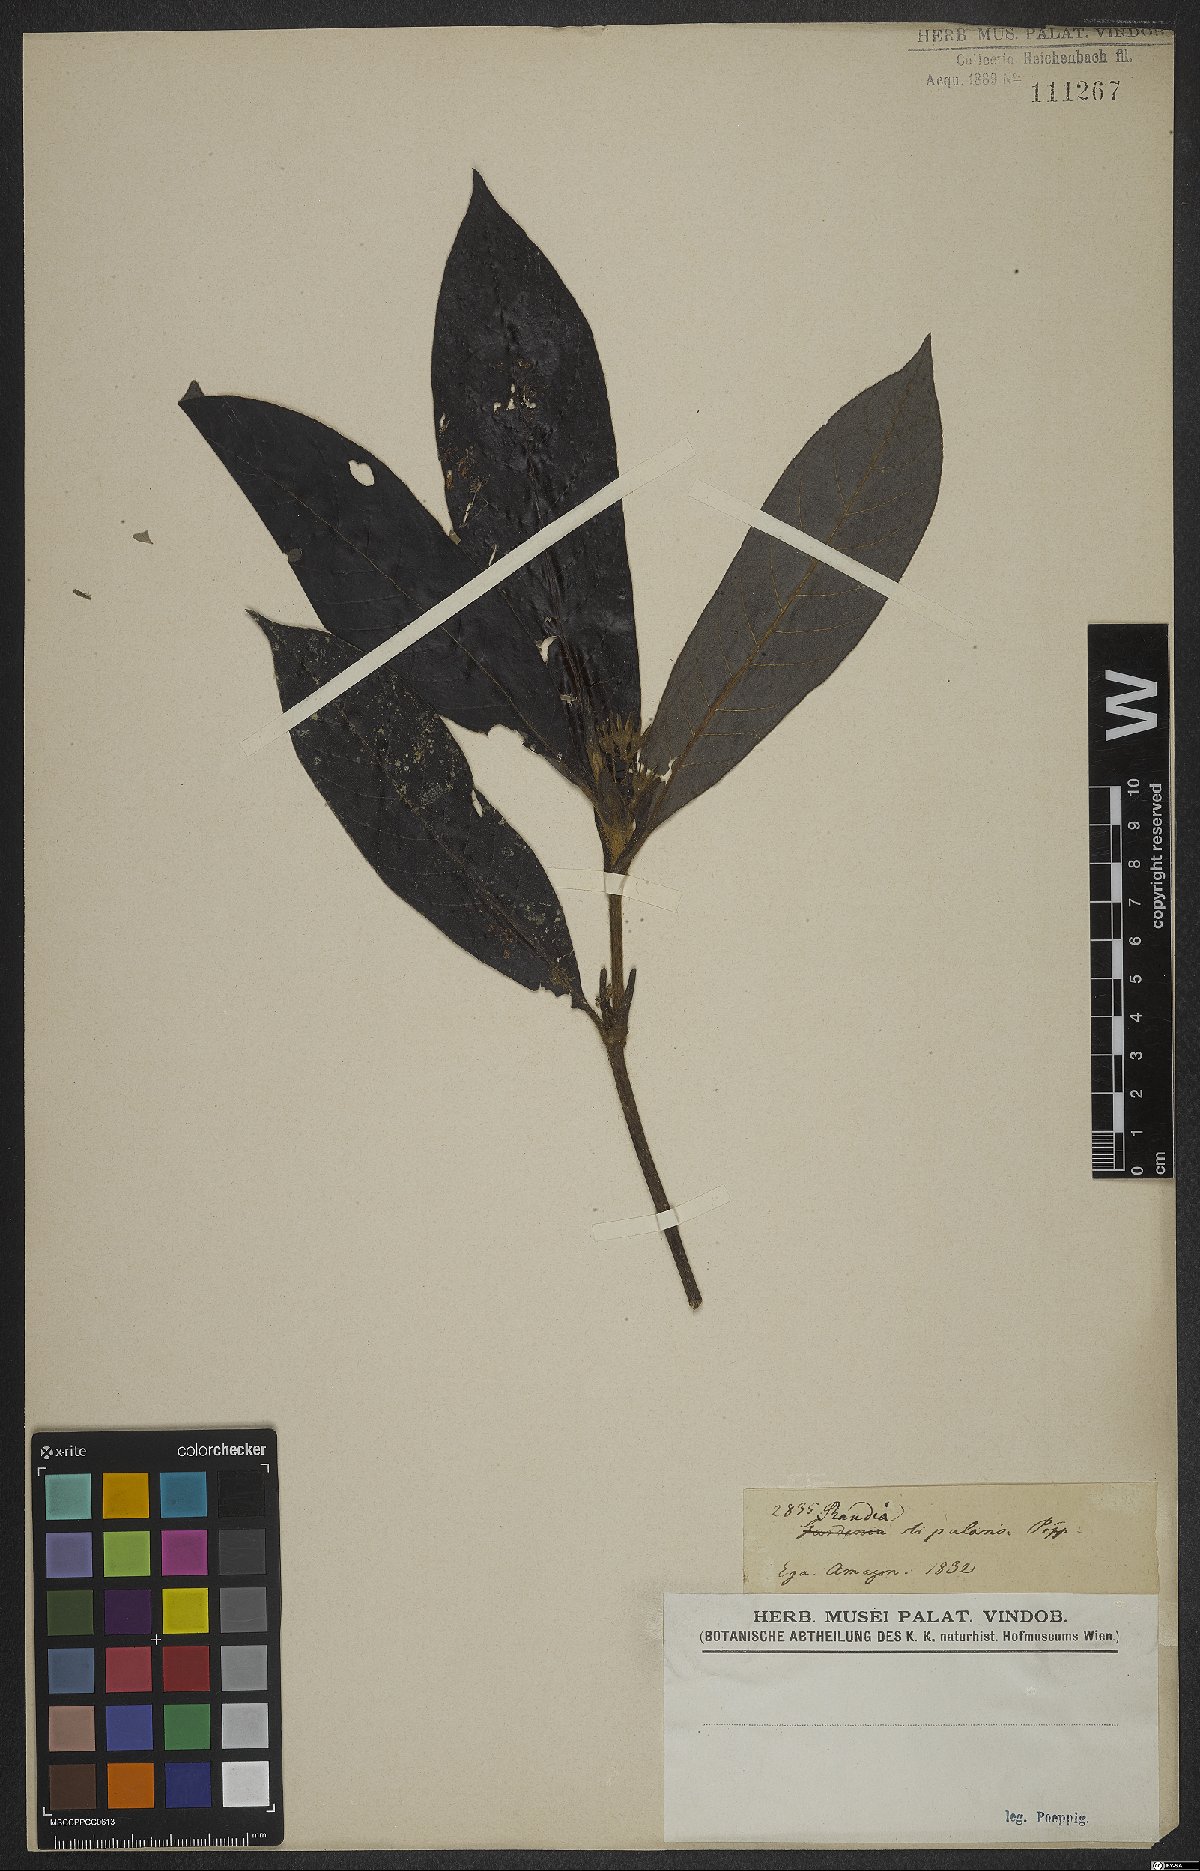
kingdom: Plantae
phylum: Tracheophyta
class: Magnoliopsida
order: Gentianales
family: Rubiaceae
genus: Atractocarpus
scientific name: Atractocarpus stipularis
